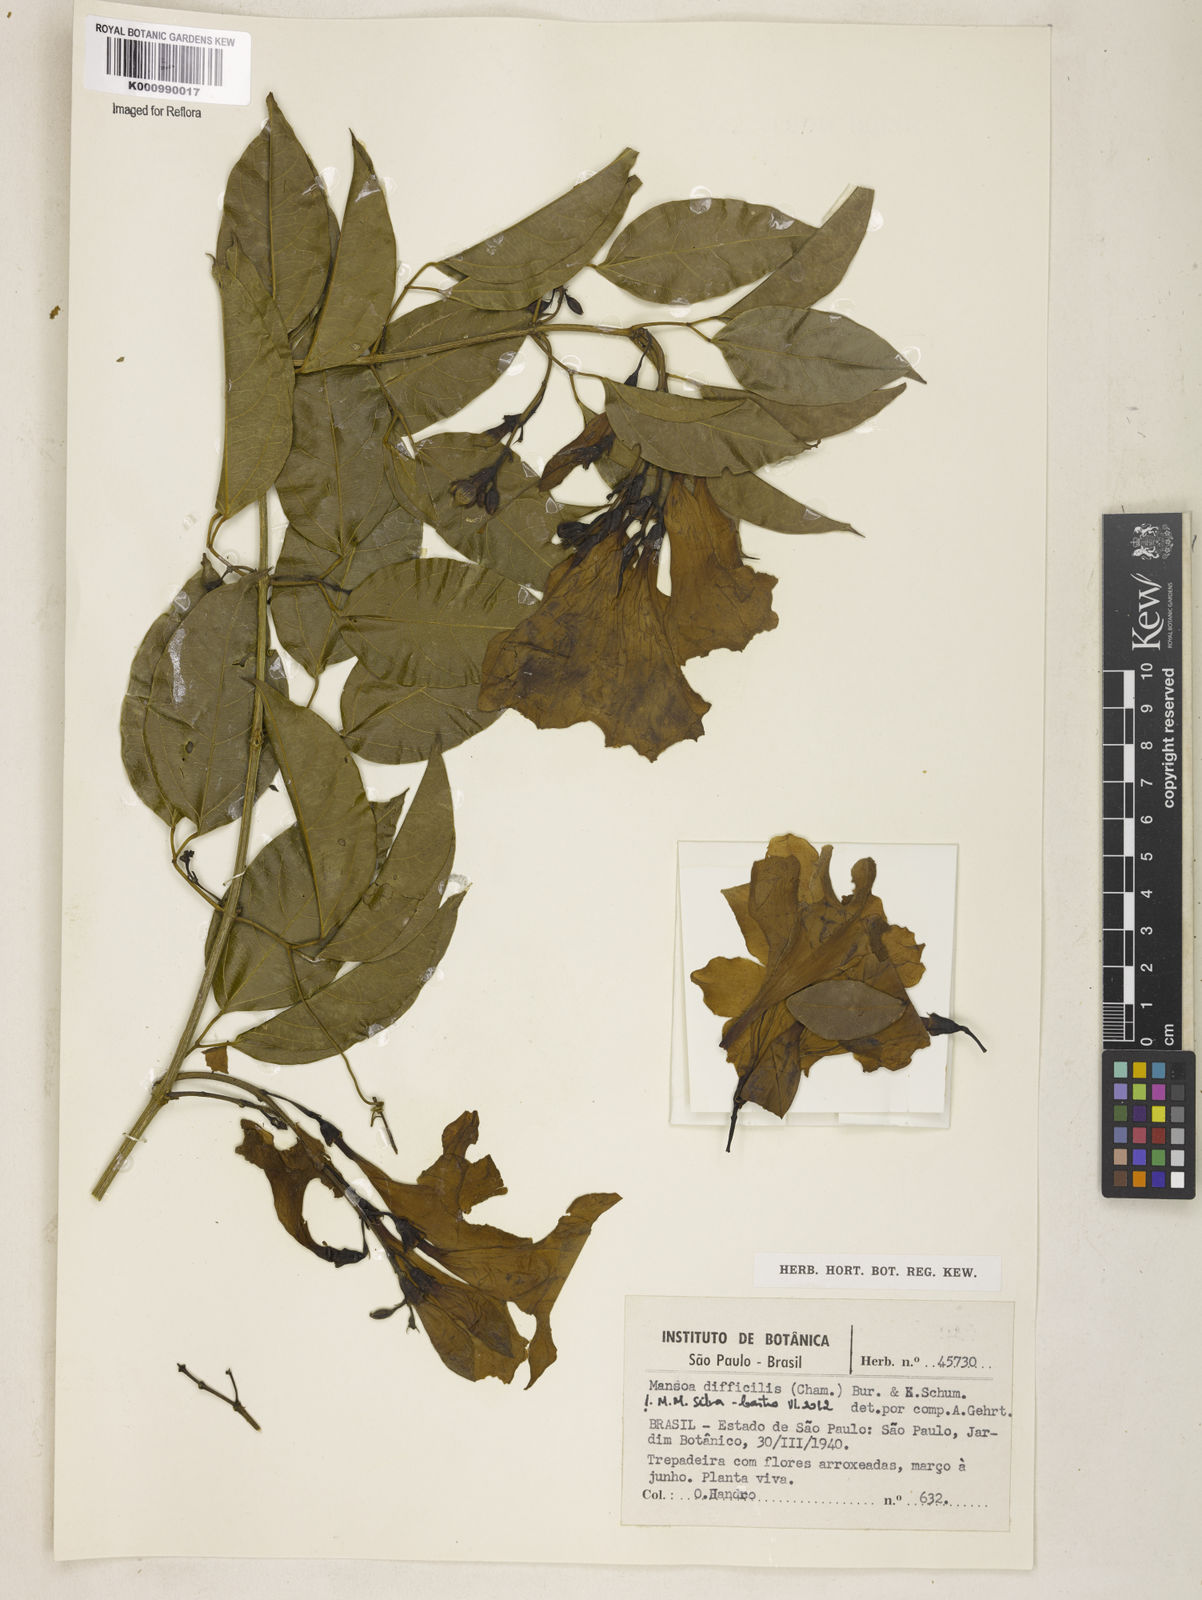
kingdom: Plantae
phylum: Tracheophyta
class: Magnoliopsida
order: Lamiales
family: Bignoniaceae
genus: Mansoa
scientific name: Mansoa difficilis
